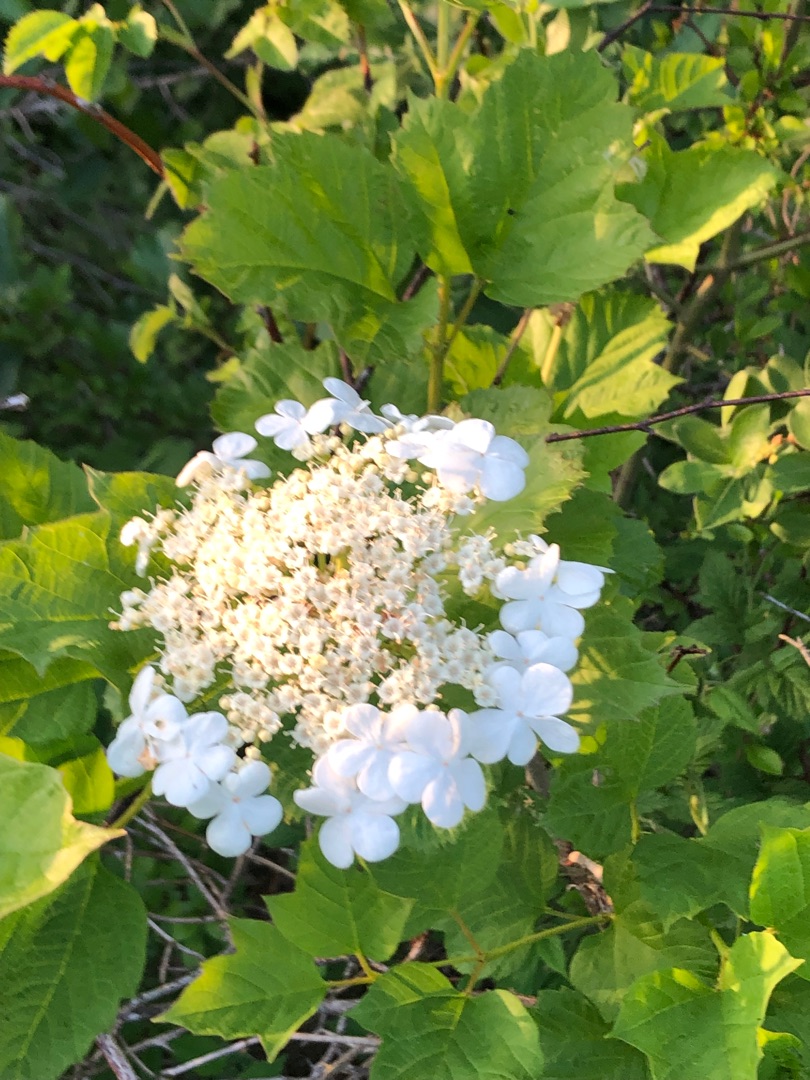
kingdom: Plantae
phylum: Tracheophyta
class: Magnoliopsida
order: Dipsacales
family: Viburnaceae
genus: Viburnum
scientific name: Viburnum opulus
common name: Kvalkved
